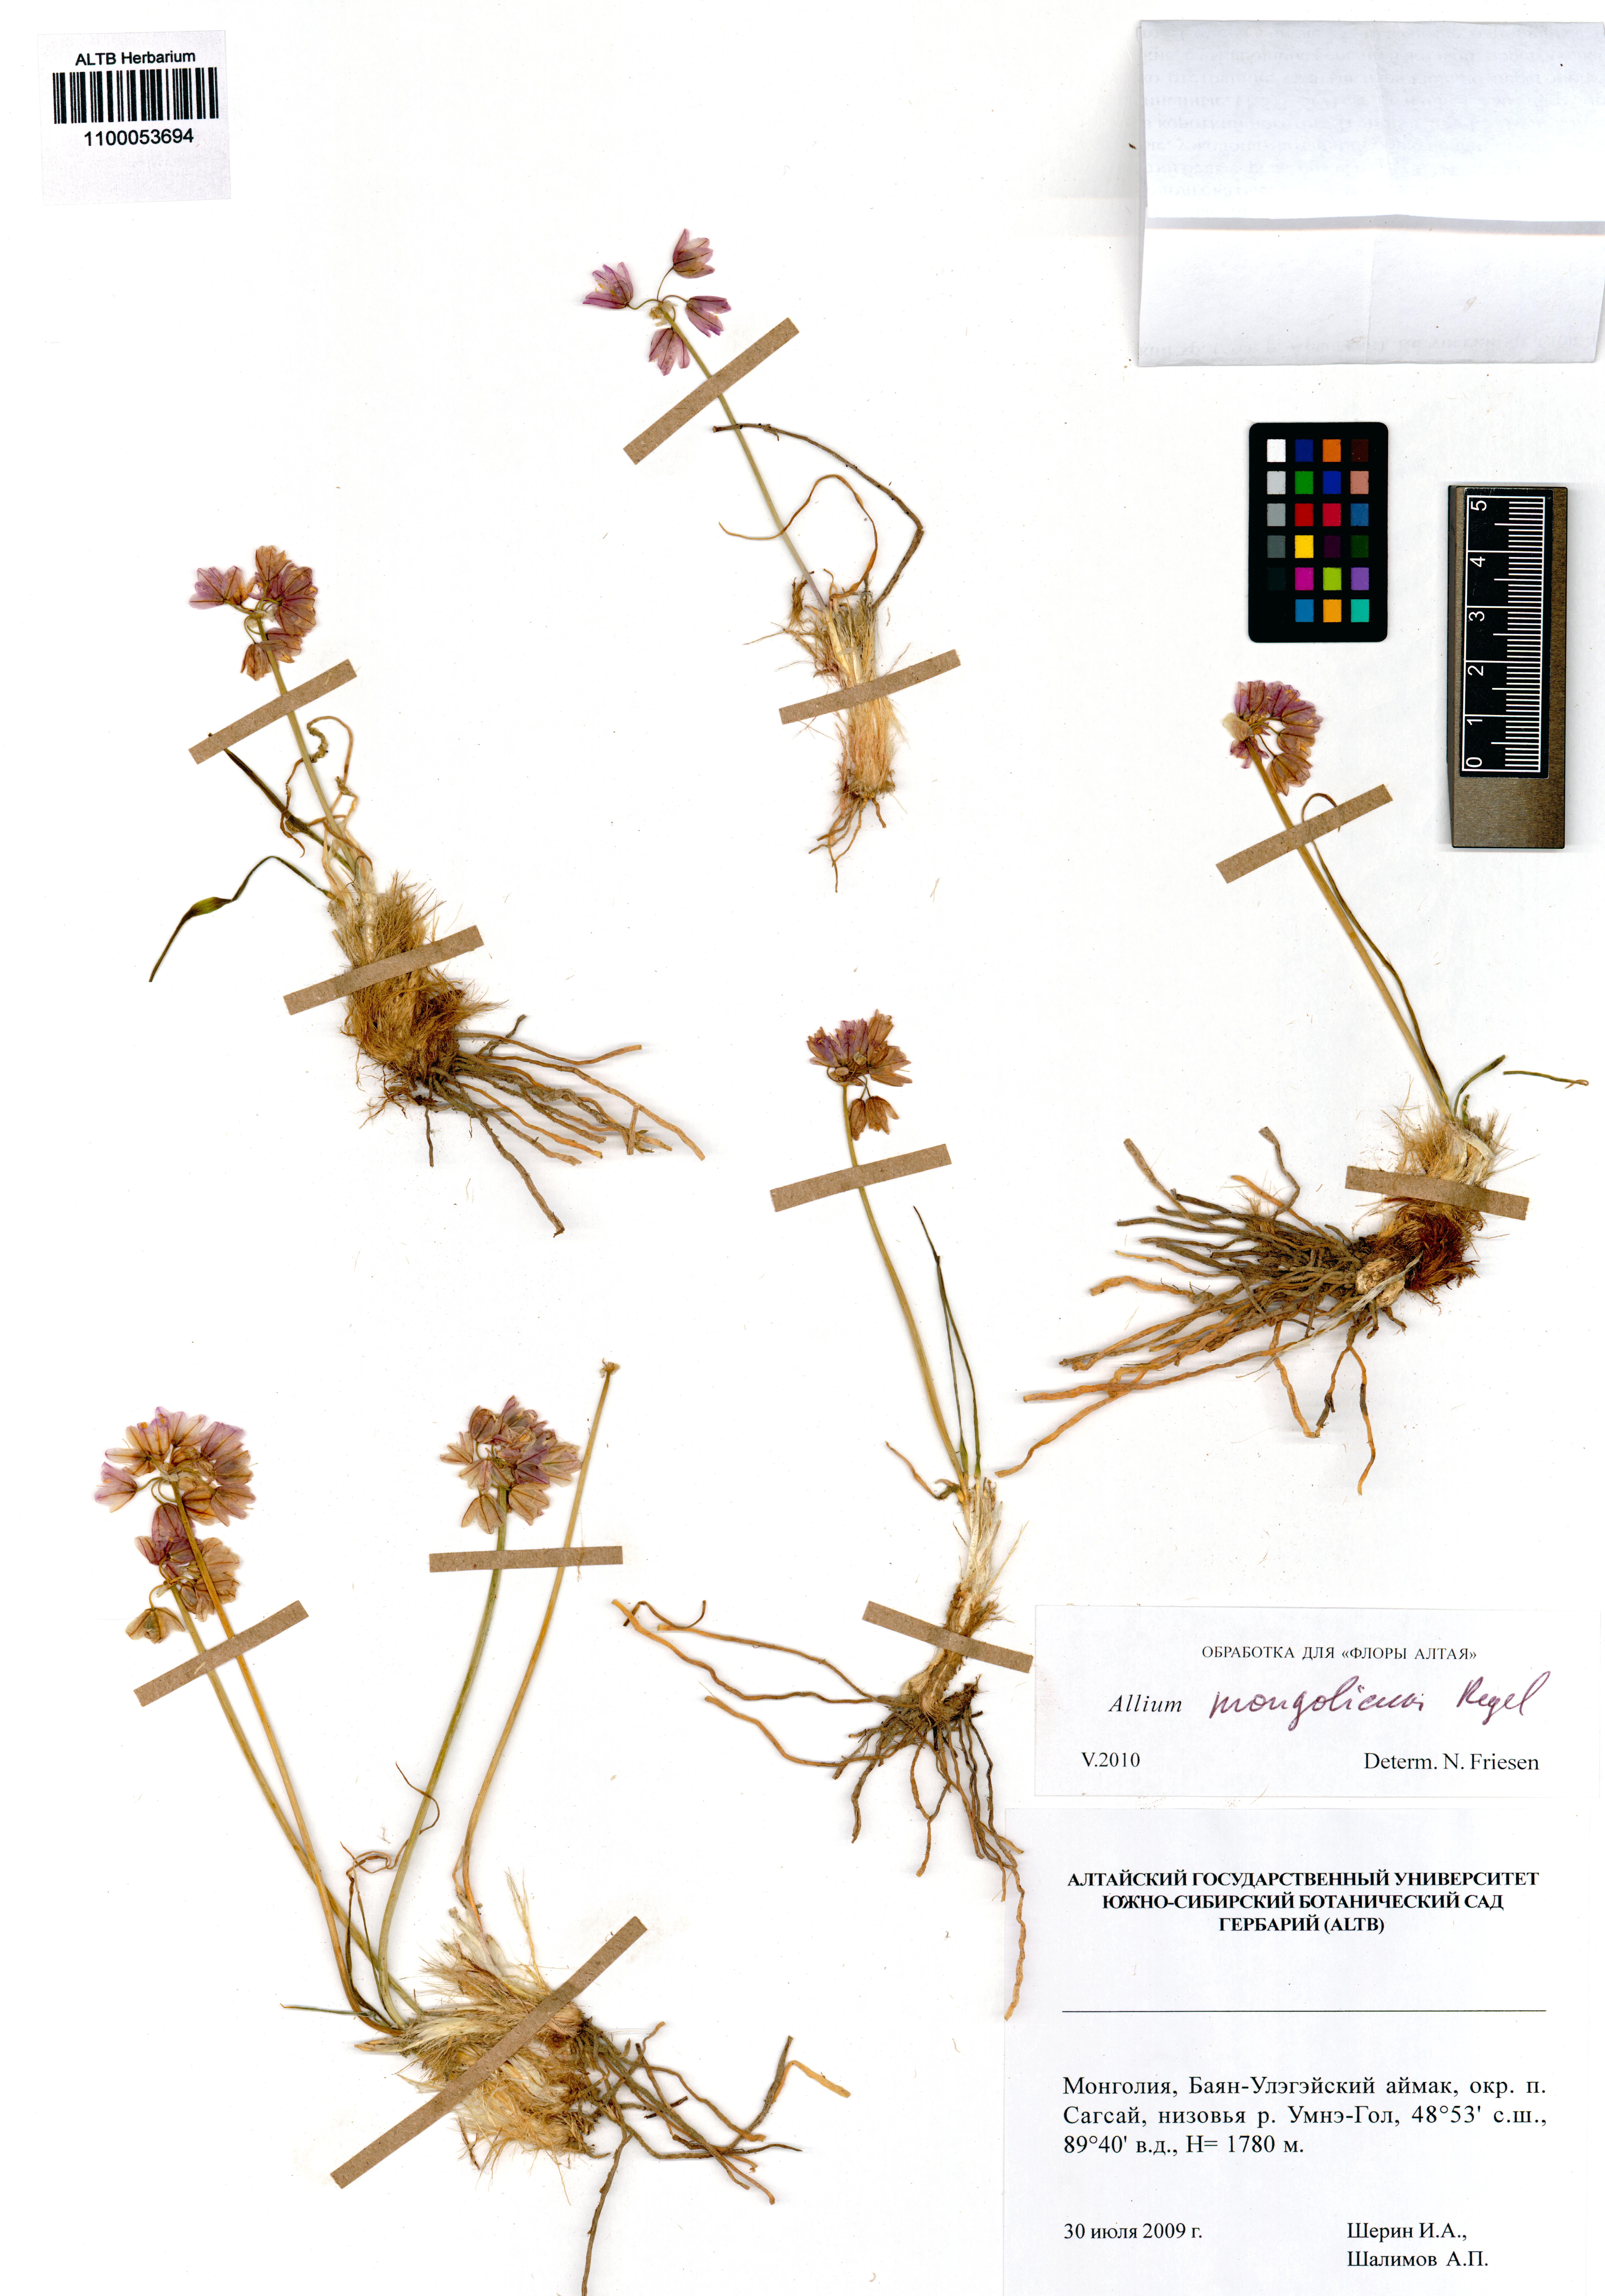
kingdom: Plantae
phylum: Tracheophyta
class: Liliopsida
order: Asparagales
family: Amaryllidaceae
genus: Allium
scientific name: Allium mongolicum
